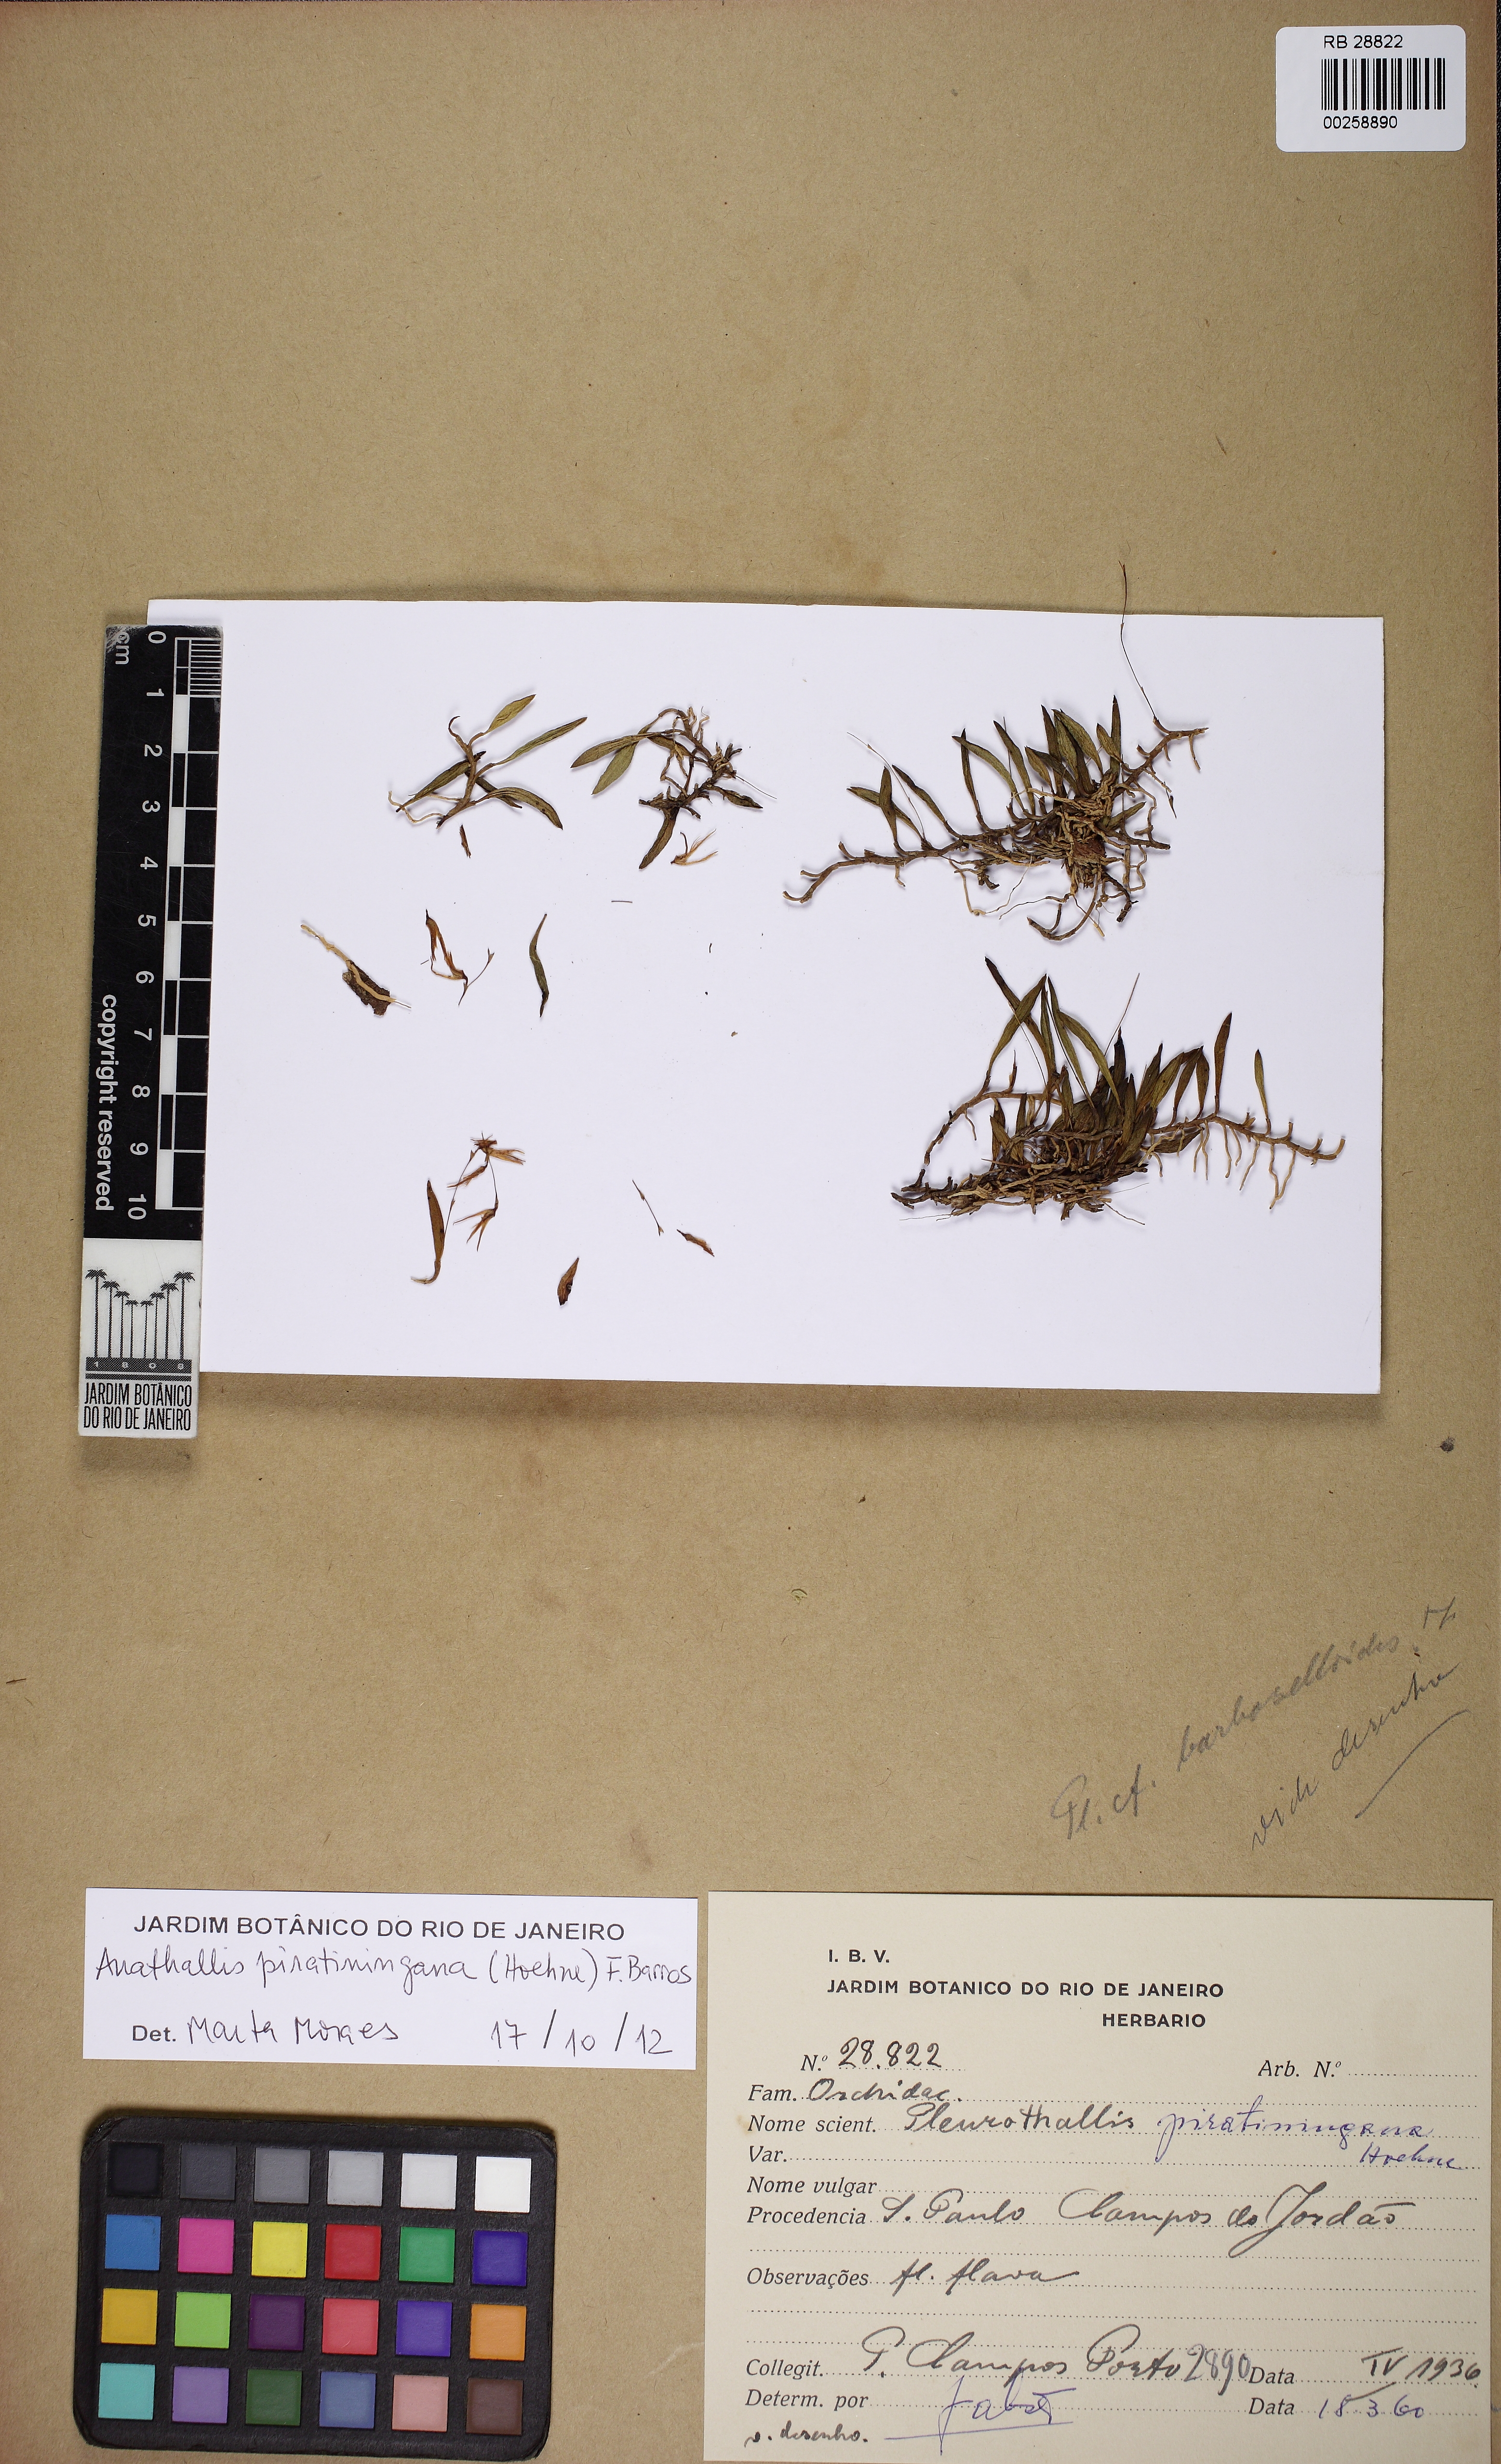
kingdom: Plantae
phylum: Tracheophyta
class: Liliopsida
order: Asparagales
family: Orchidaceae
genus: Anathallis
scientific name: Anathallis piratiningana
